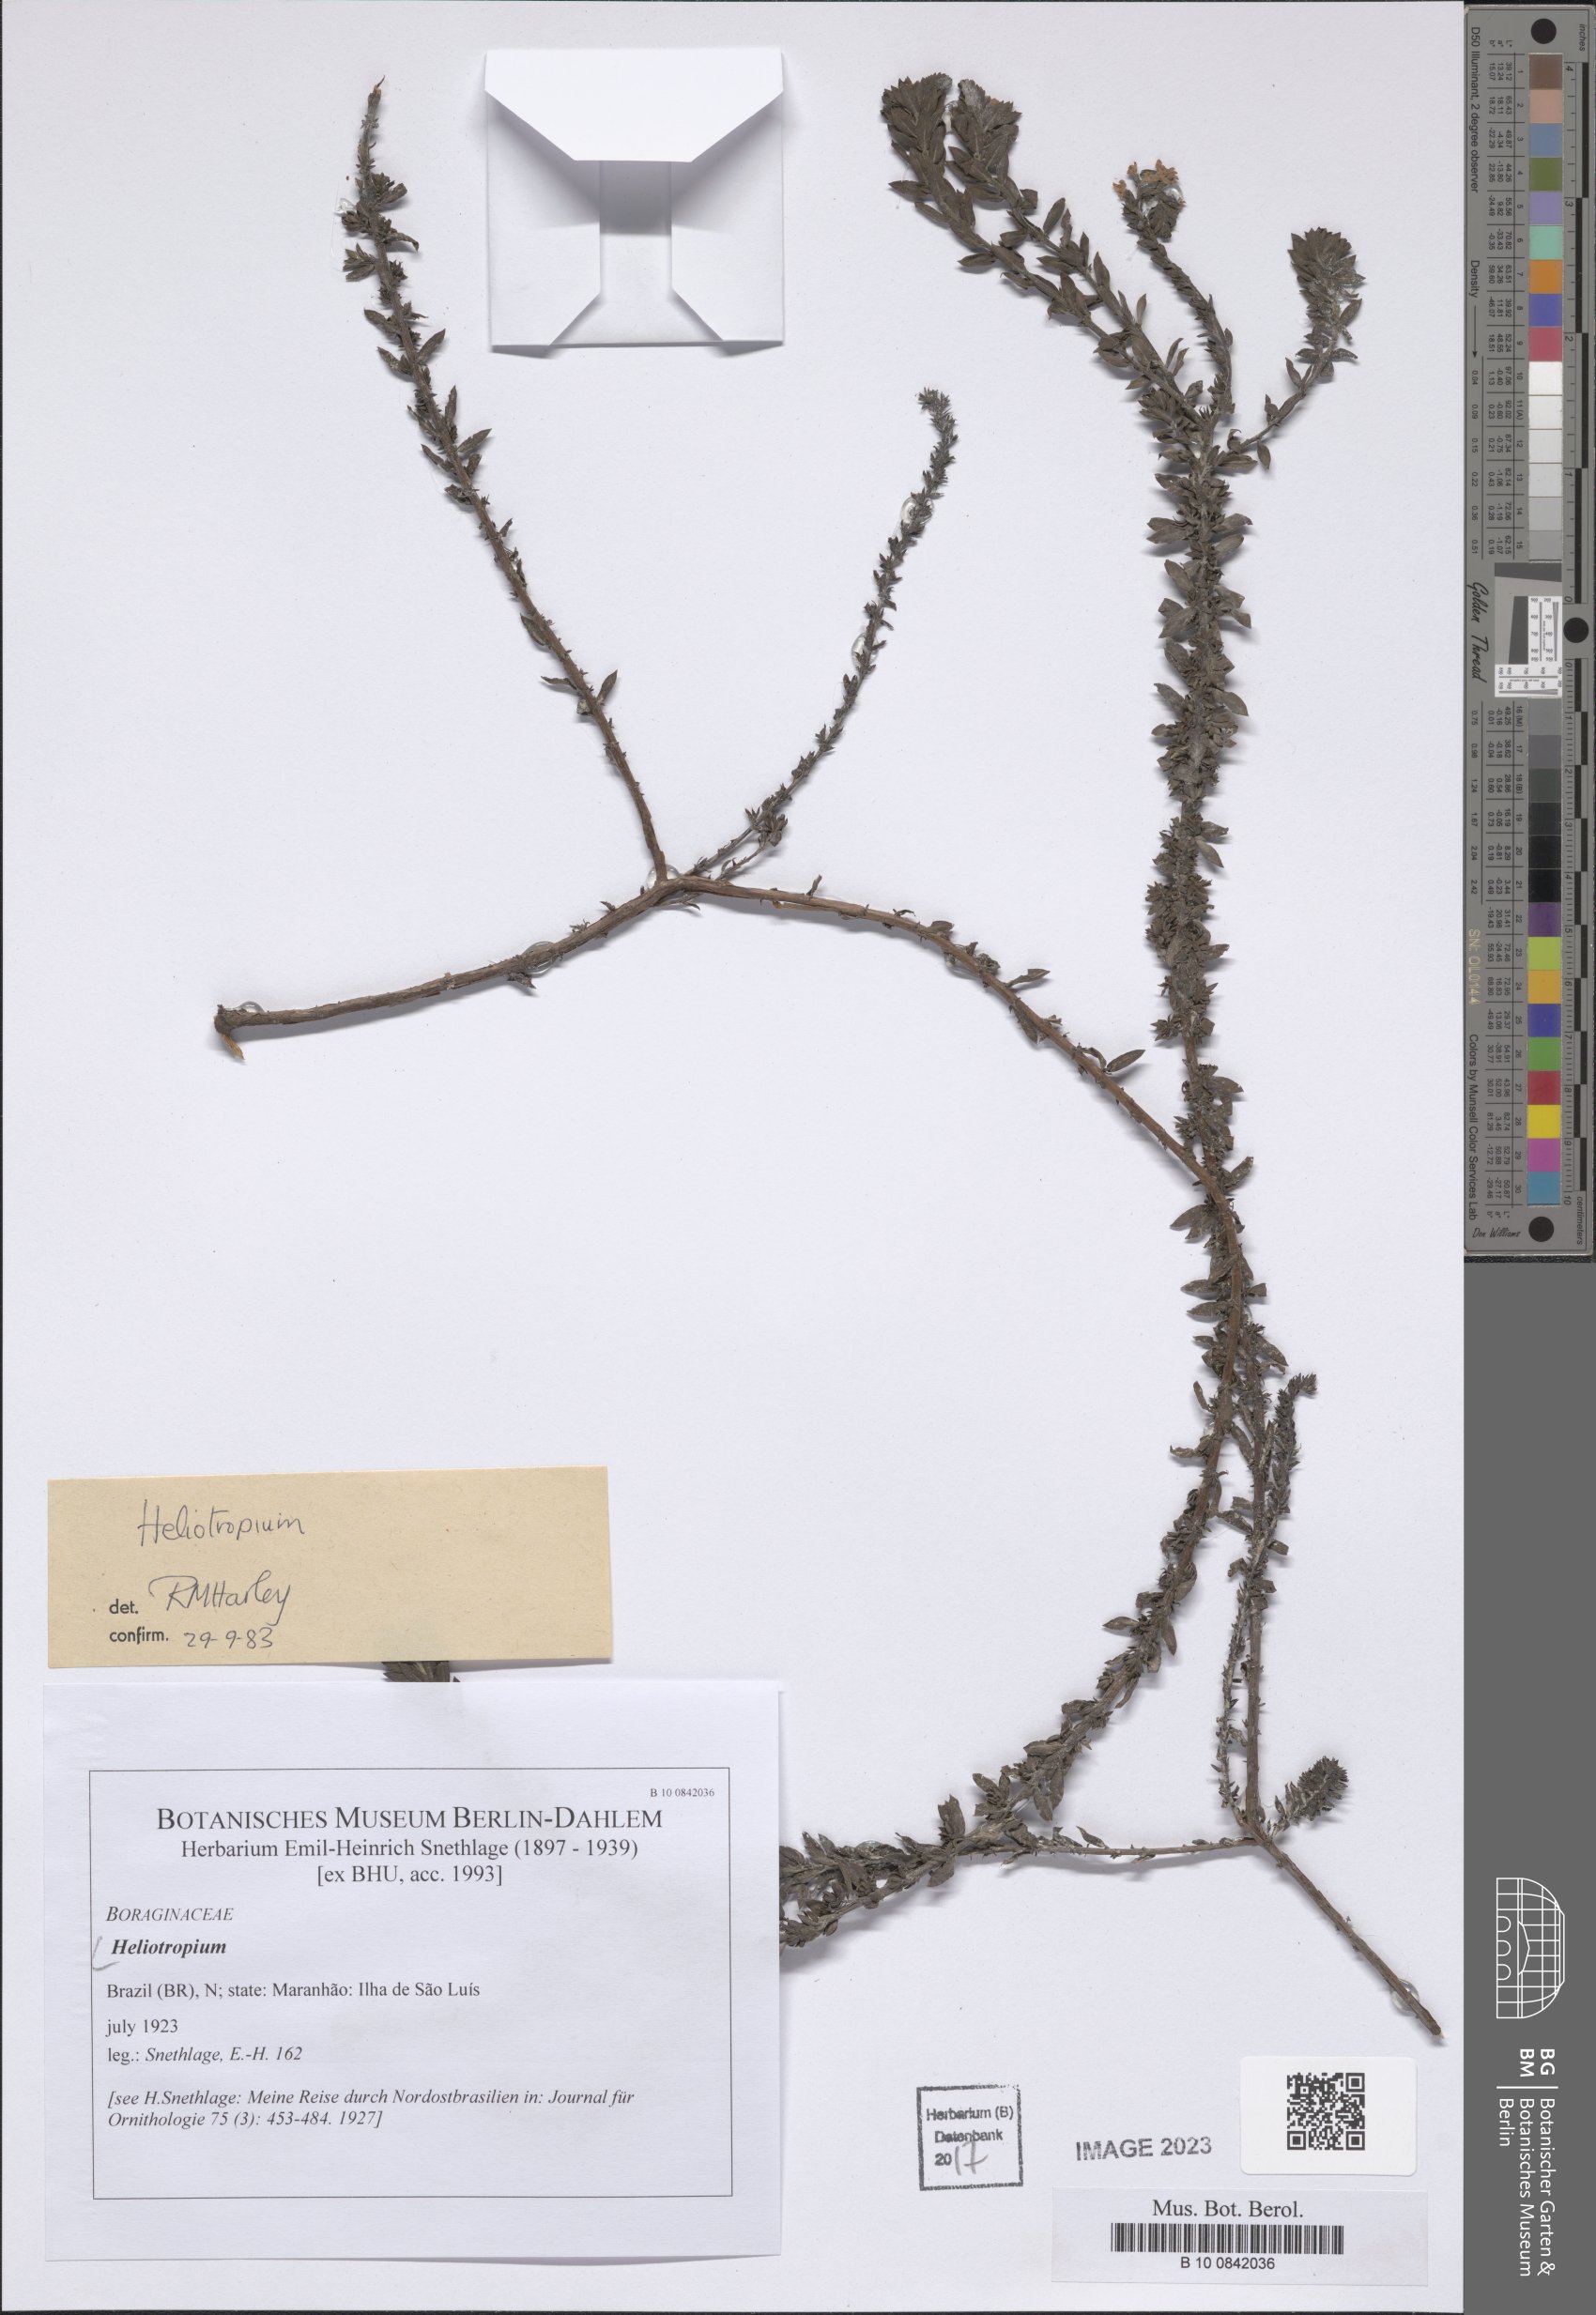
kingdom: Plantae
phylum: Tracheophyta
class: Magnoliopsida
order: Boraginales
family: Heliotropiaceae
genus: Heliotropium
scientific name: Heliotropium
